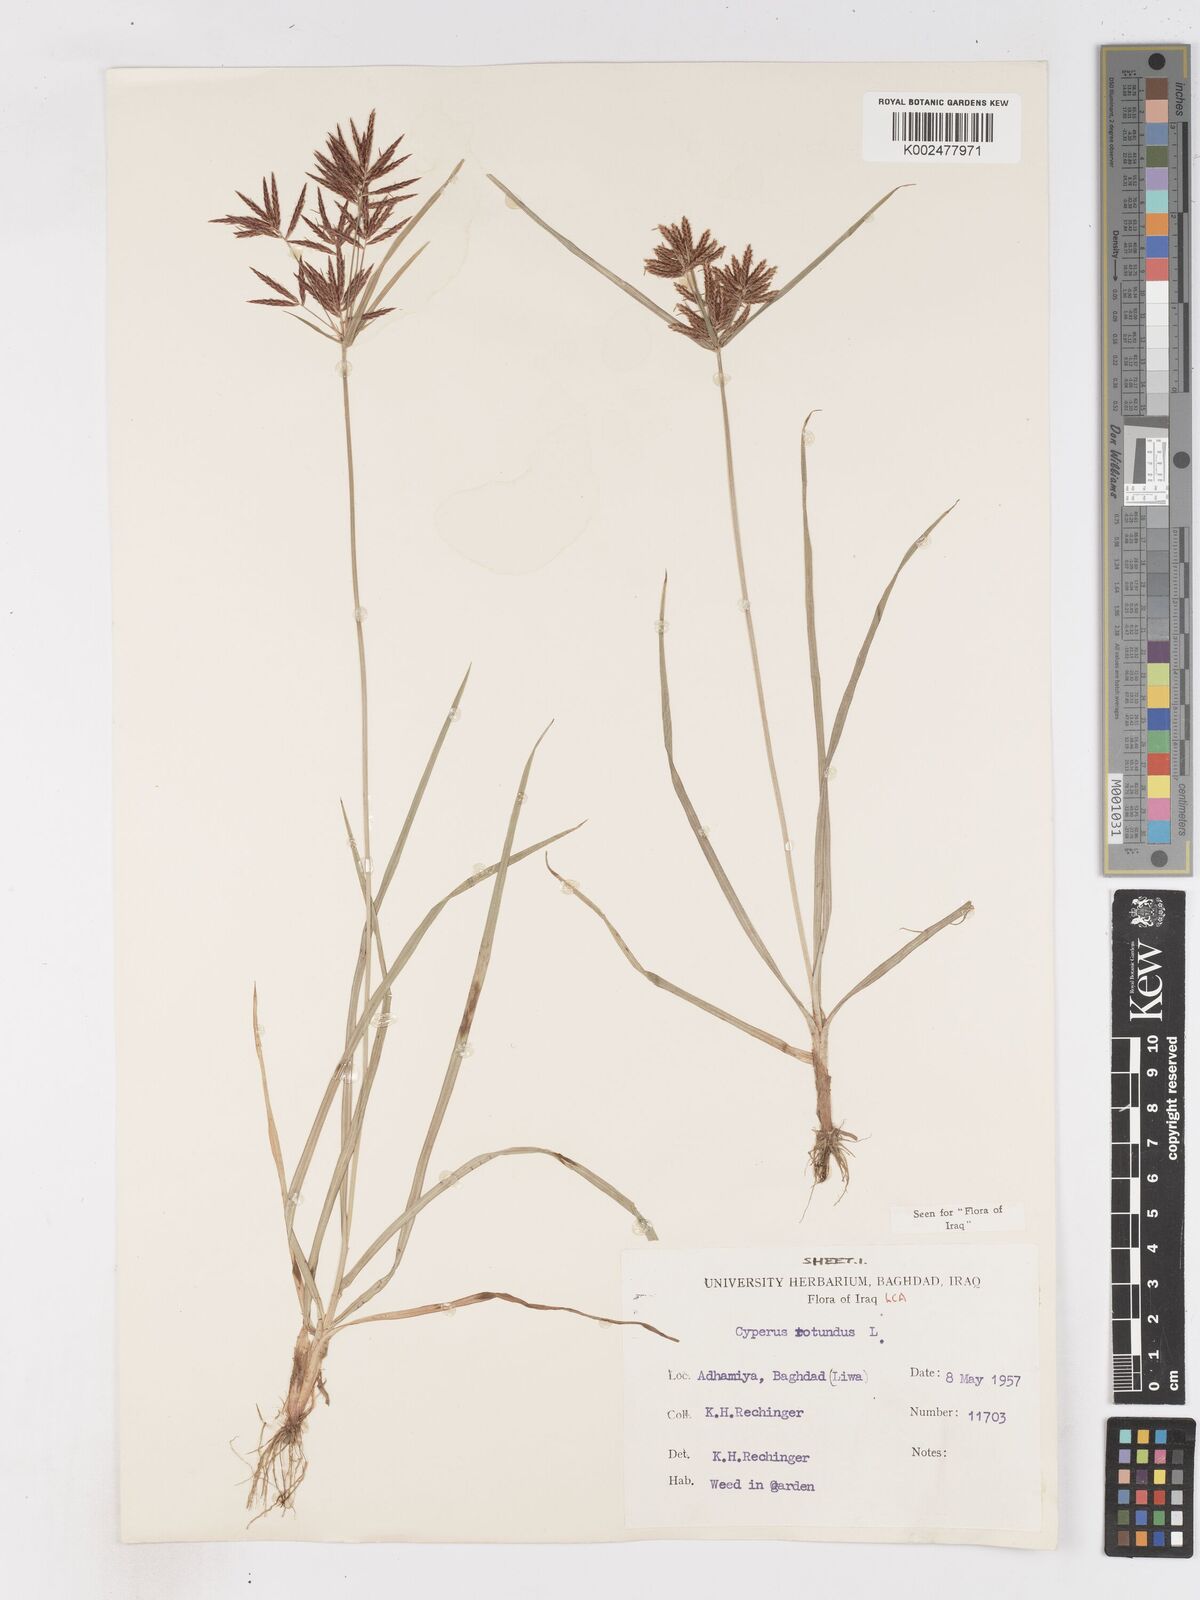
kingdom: Plantae
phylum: Tracheophyta
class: Liliopsida
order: Poales
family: Cyperaceae
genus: Cyperus
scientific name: Cyperus rotundus
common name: Nutgrass
